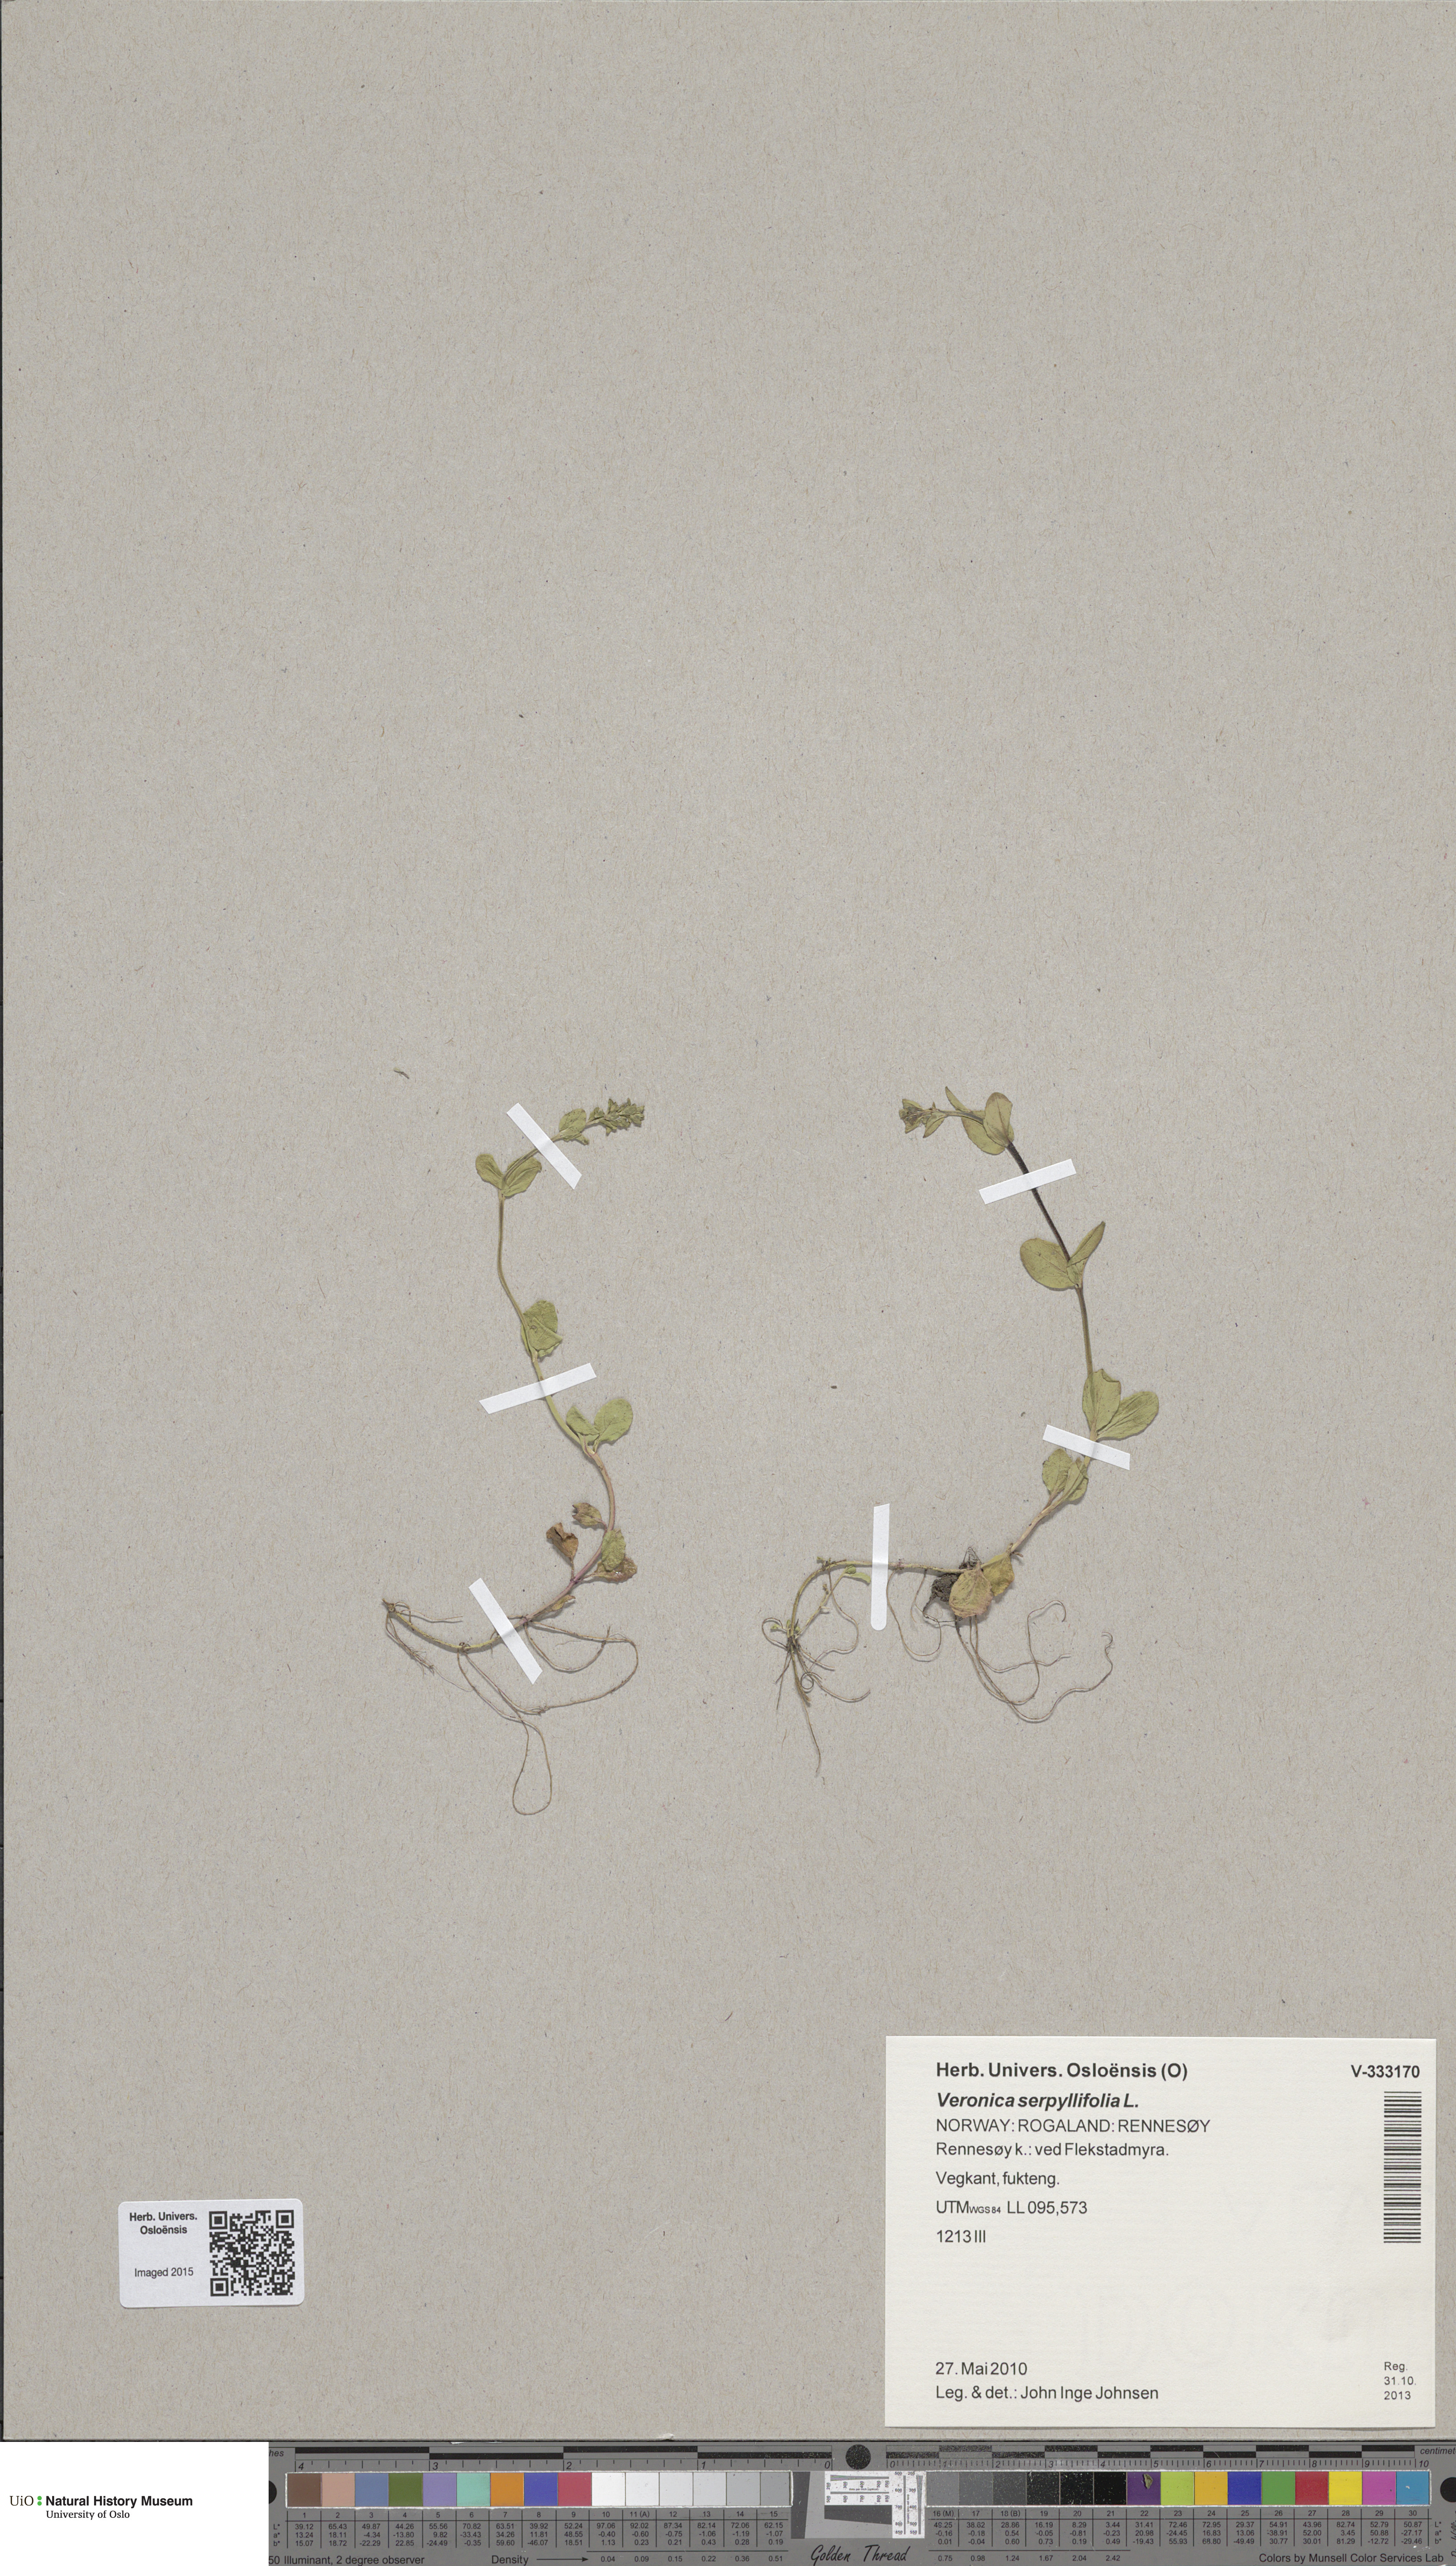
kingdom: Plantae
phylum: Tracheophyta
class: Magnoliopsida
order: Lamiales
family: Plantaginaceae
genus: Veronica
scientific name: Veronica serpyllifolia
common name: Thyme-leaved speedwell
